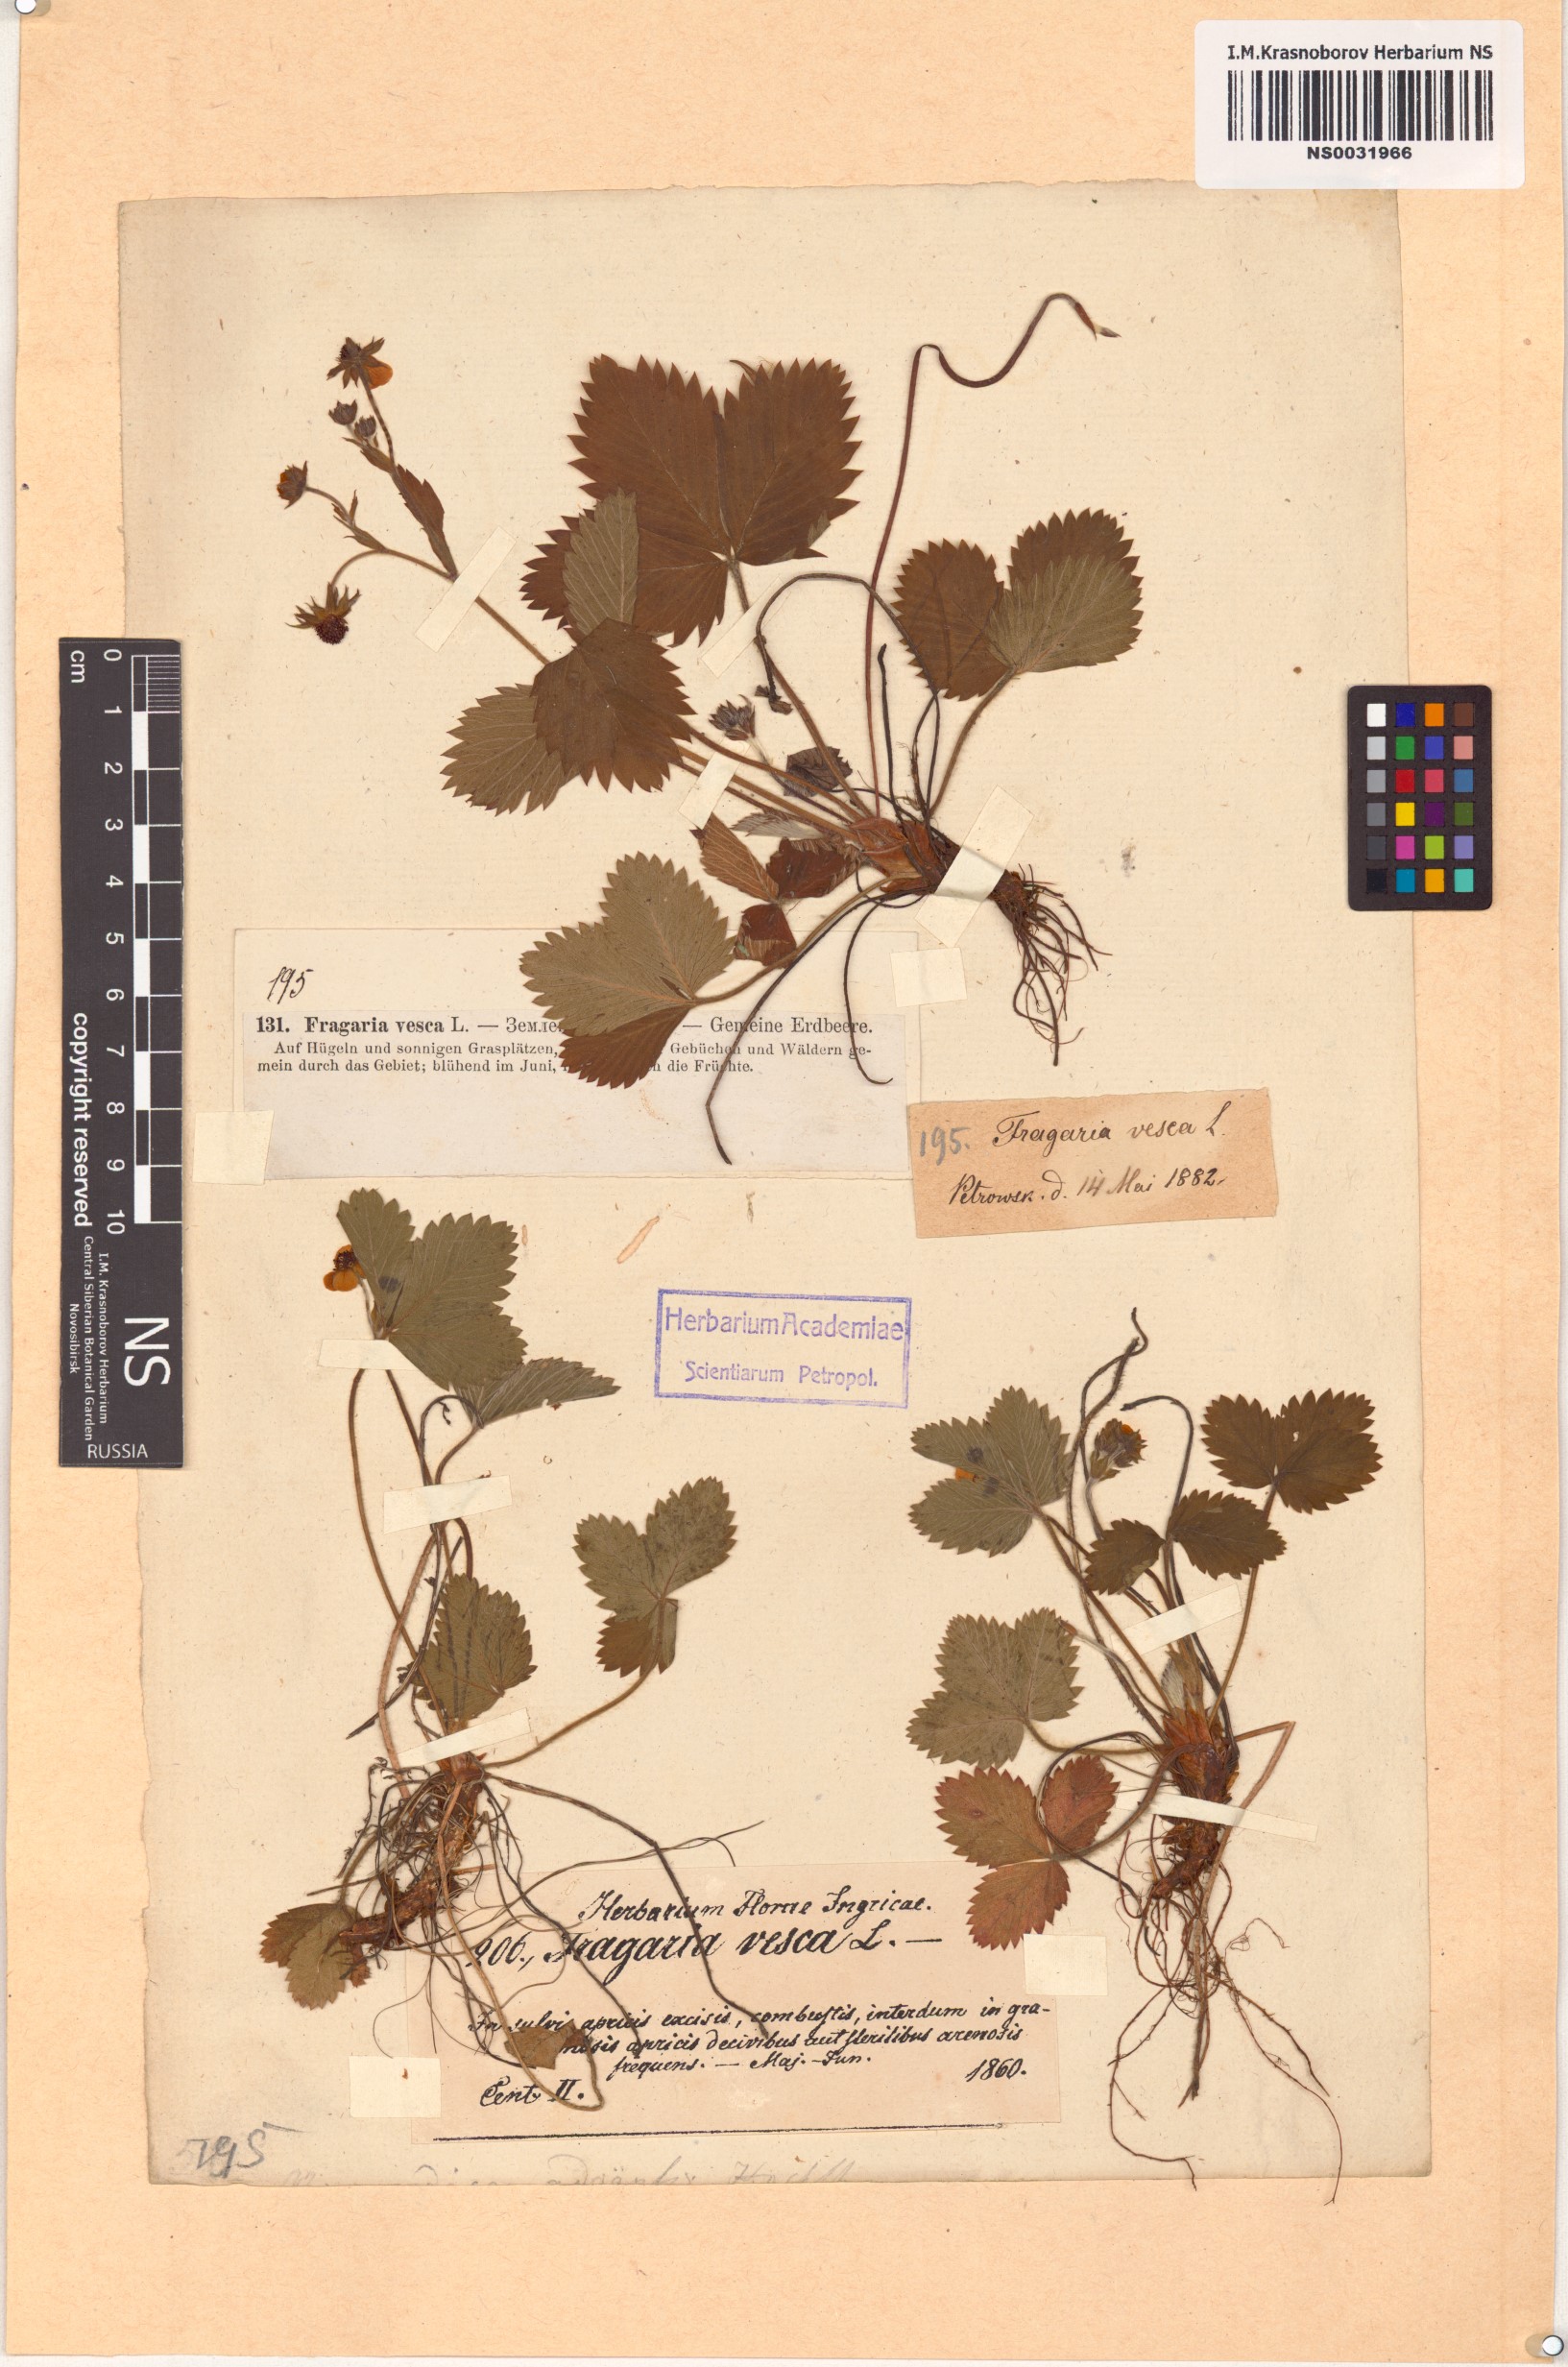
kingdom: Plantae
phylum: Tracheophyta
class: Magnoliopsida
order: Rosales
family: Rosaceae
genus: Fragaria
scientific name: Fragaria vesca
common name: Wild strawberry
